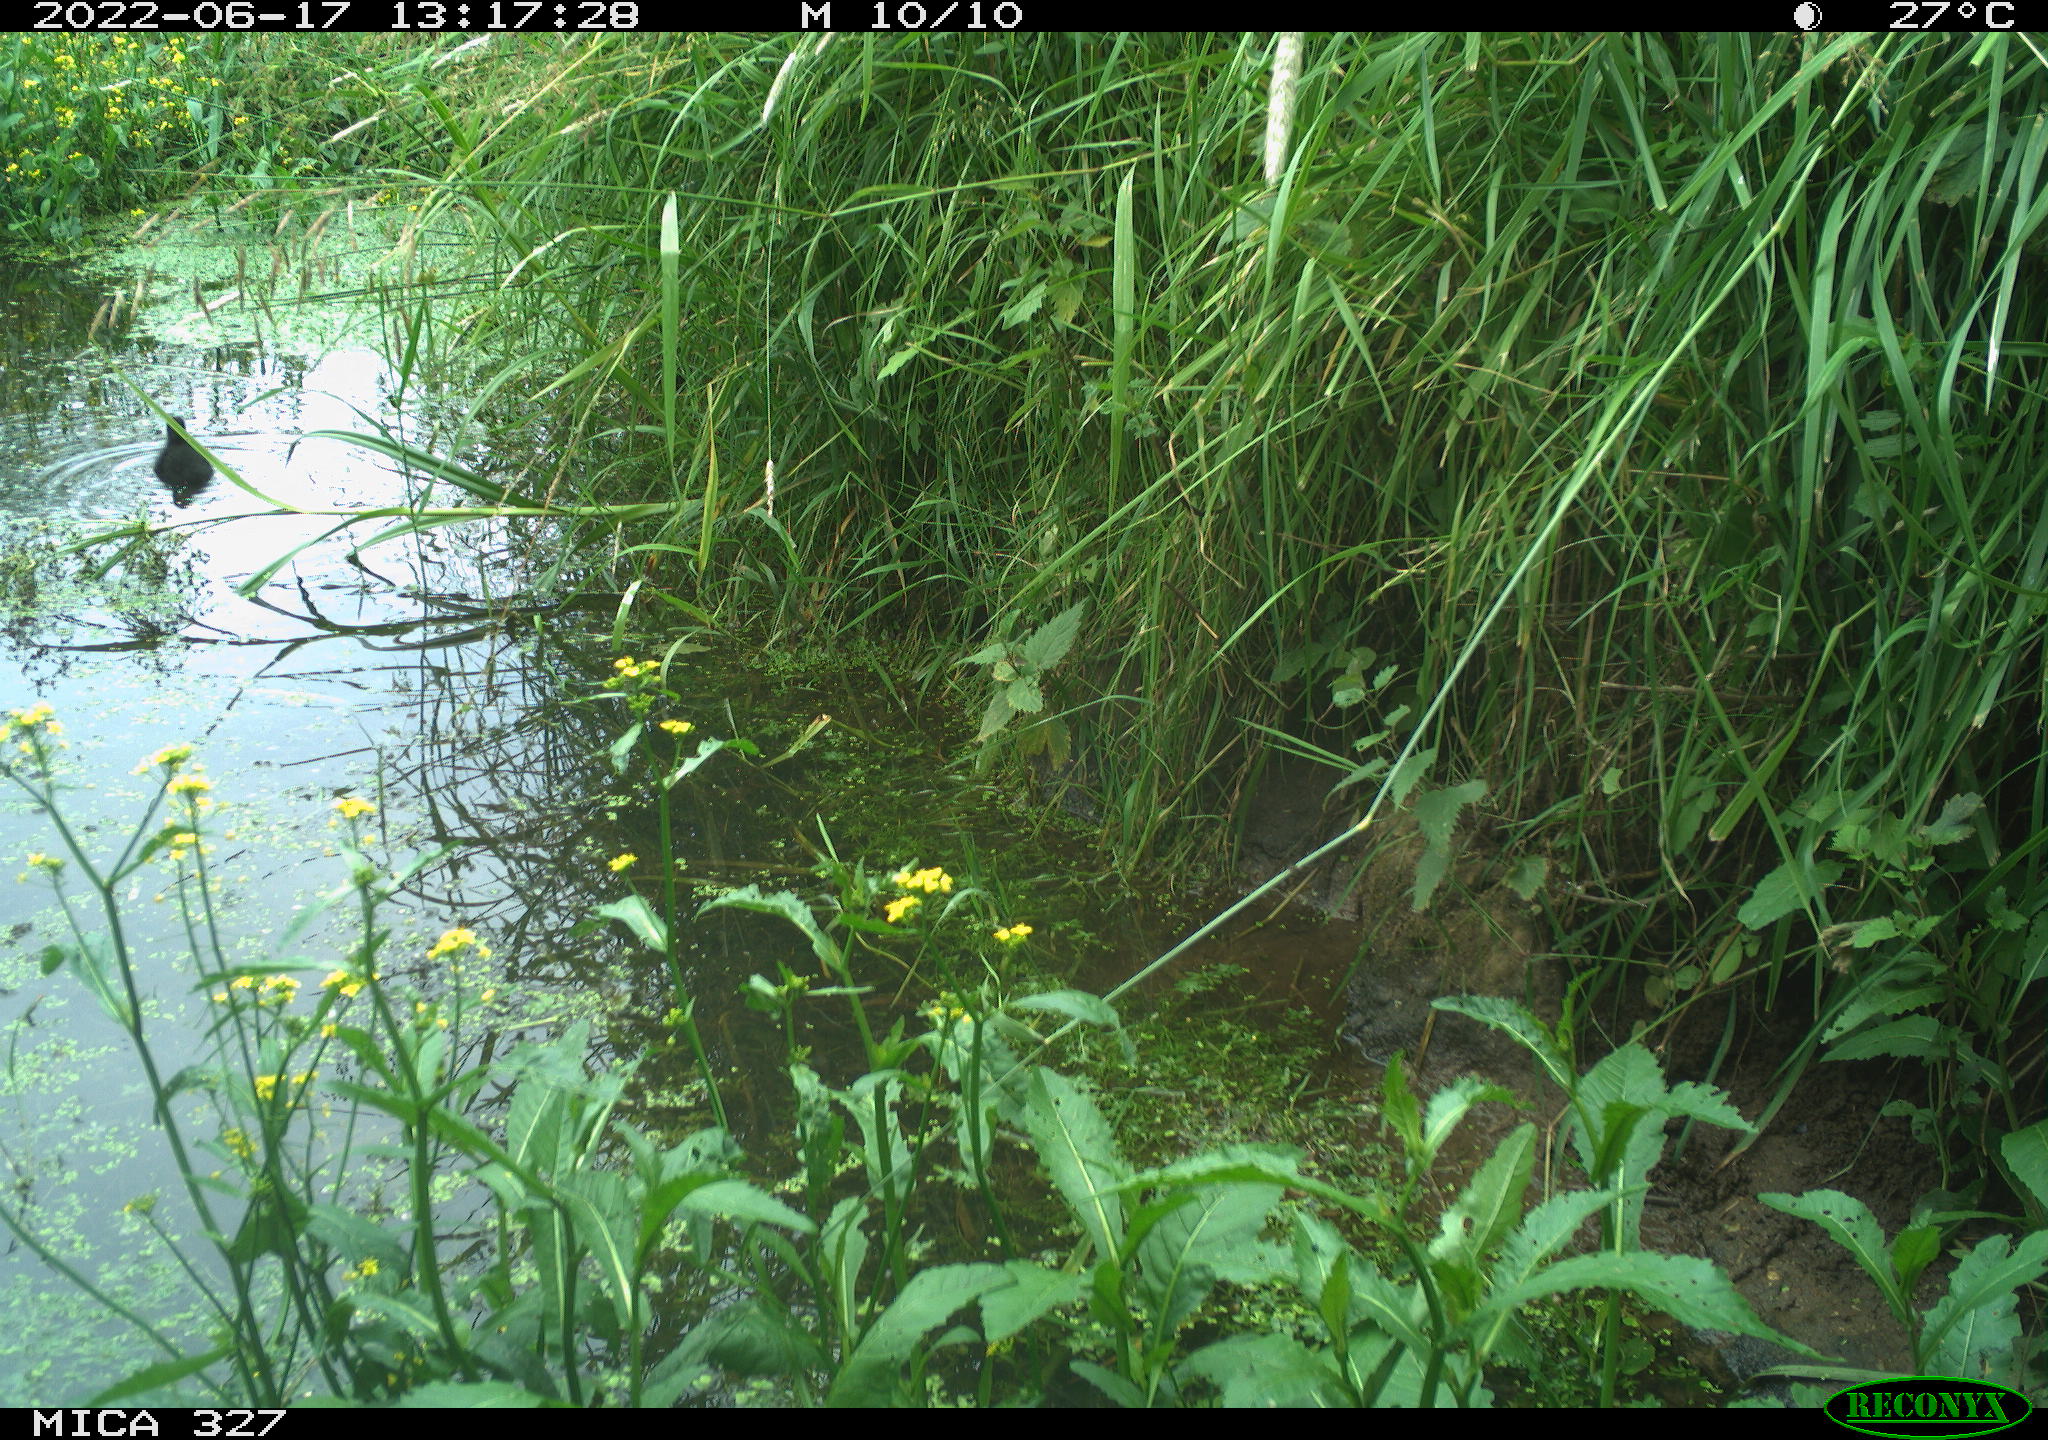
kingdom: Animalia
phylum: Chordata
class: Aves
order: Gruiformes
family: Rallidae
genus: Gallinula
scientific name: Gallinula chloropus
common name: Common moorhen
